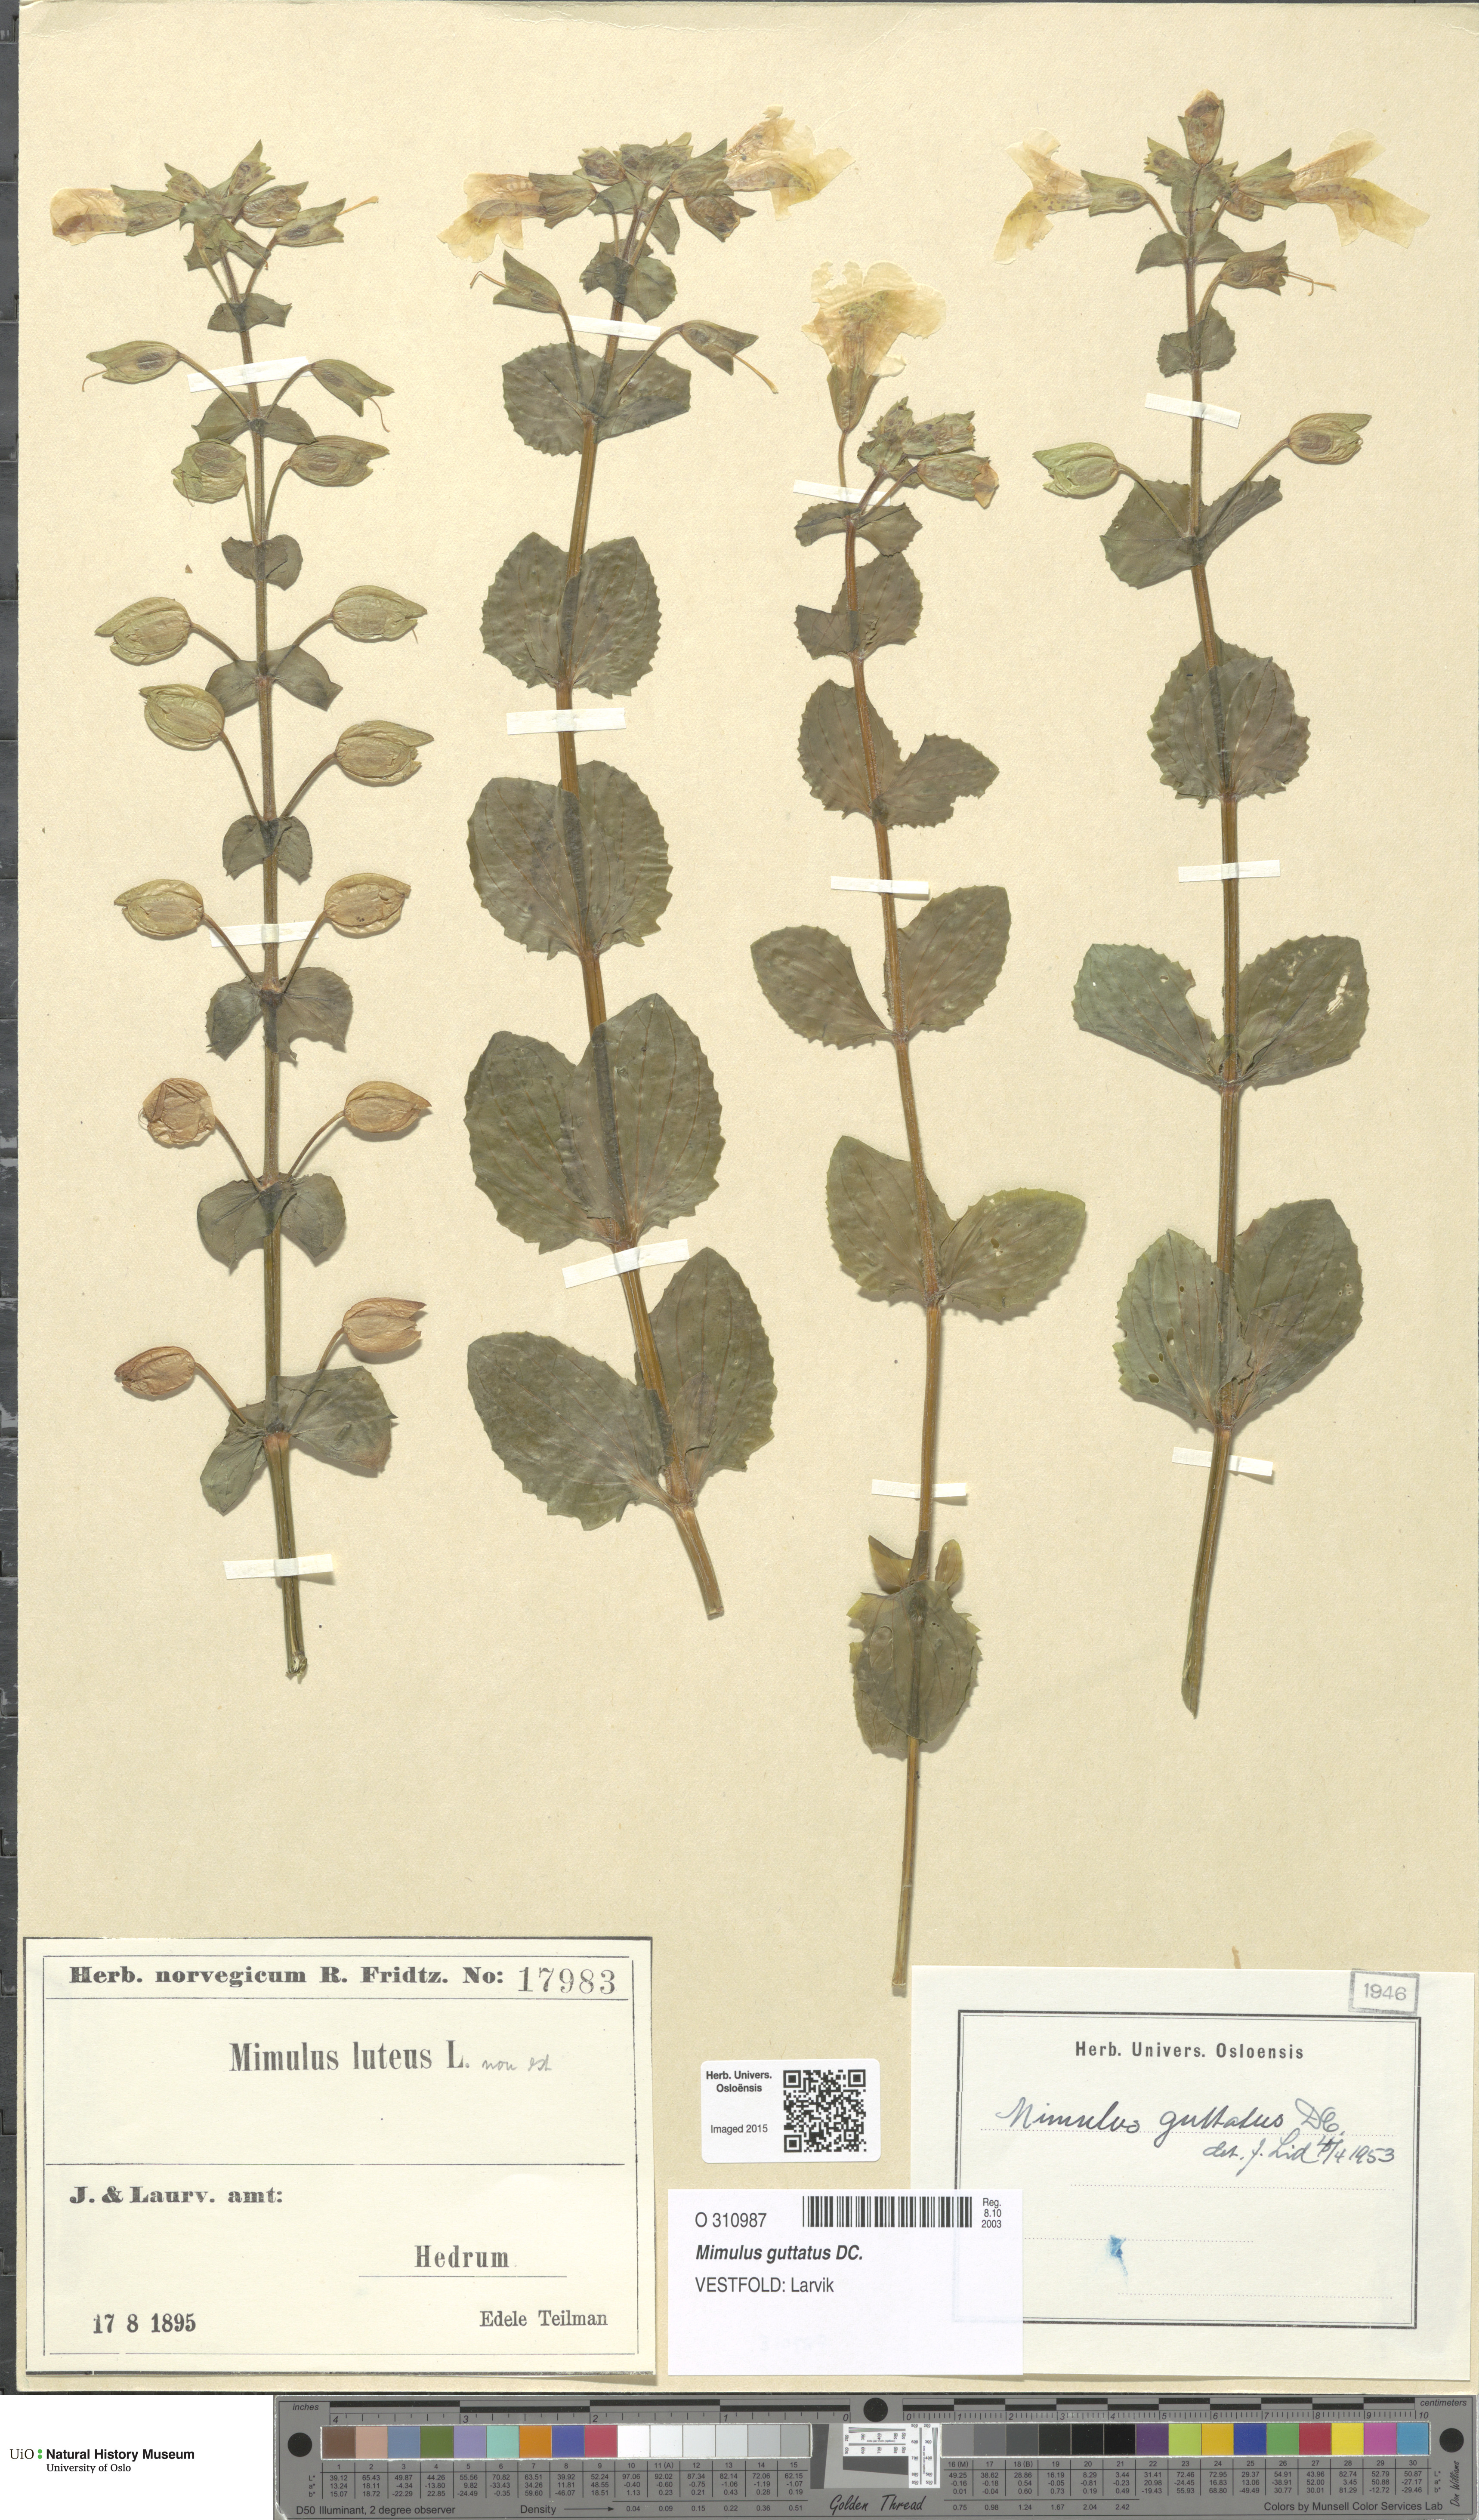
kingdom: Plantae
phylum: Tracheophyta
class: Magnoliopsida
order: Lamiales
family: Phrymaceae
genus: Erythranthe
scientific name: Erythranthe guttata
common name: Monkeyflower
